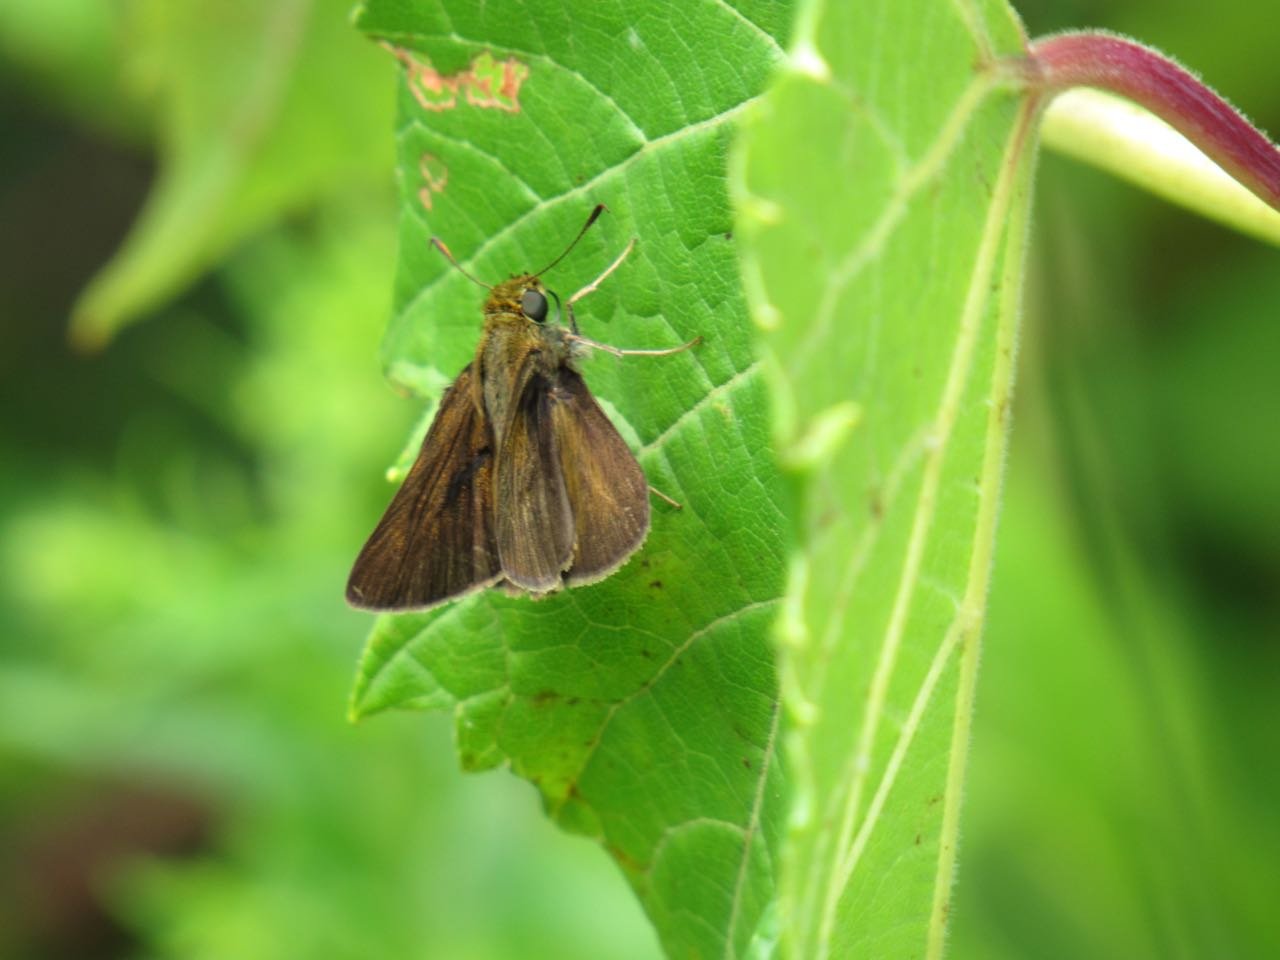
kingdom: Animalia
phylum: Arthropoda
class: Insecta
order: Lepidoptera
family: Hesperiidae
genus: Euphyes
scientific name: Euphyes vestris
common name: Dun Skipper
